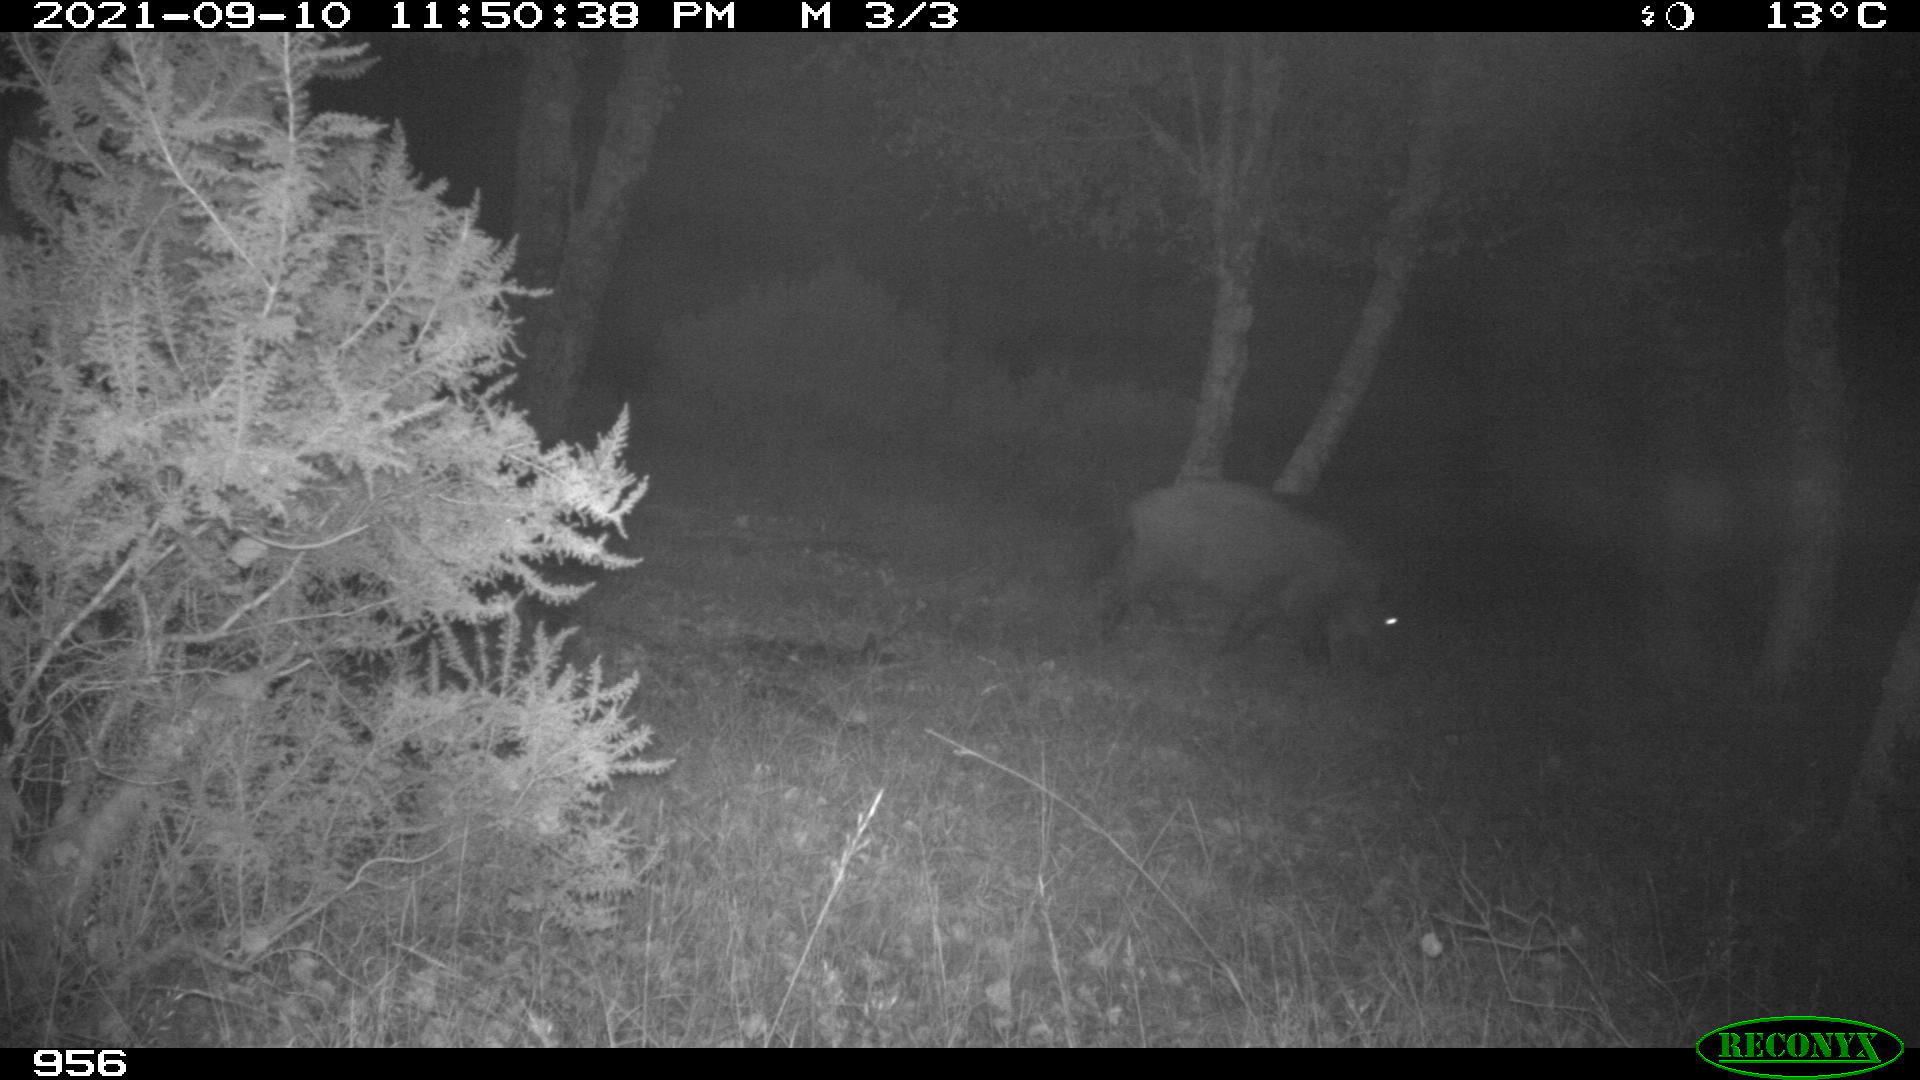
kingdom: Animalia
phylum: Chordata
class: Mammalia
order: Artiodactyla
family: Suidae
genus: Sus
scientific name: Sus scrofa
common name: Wild boar
